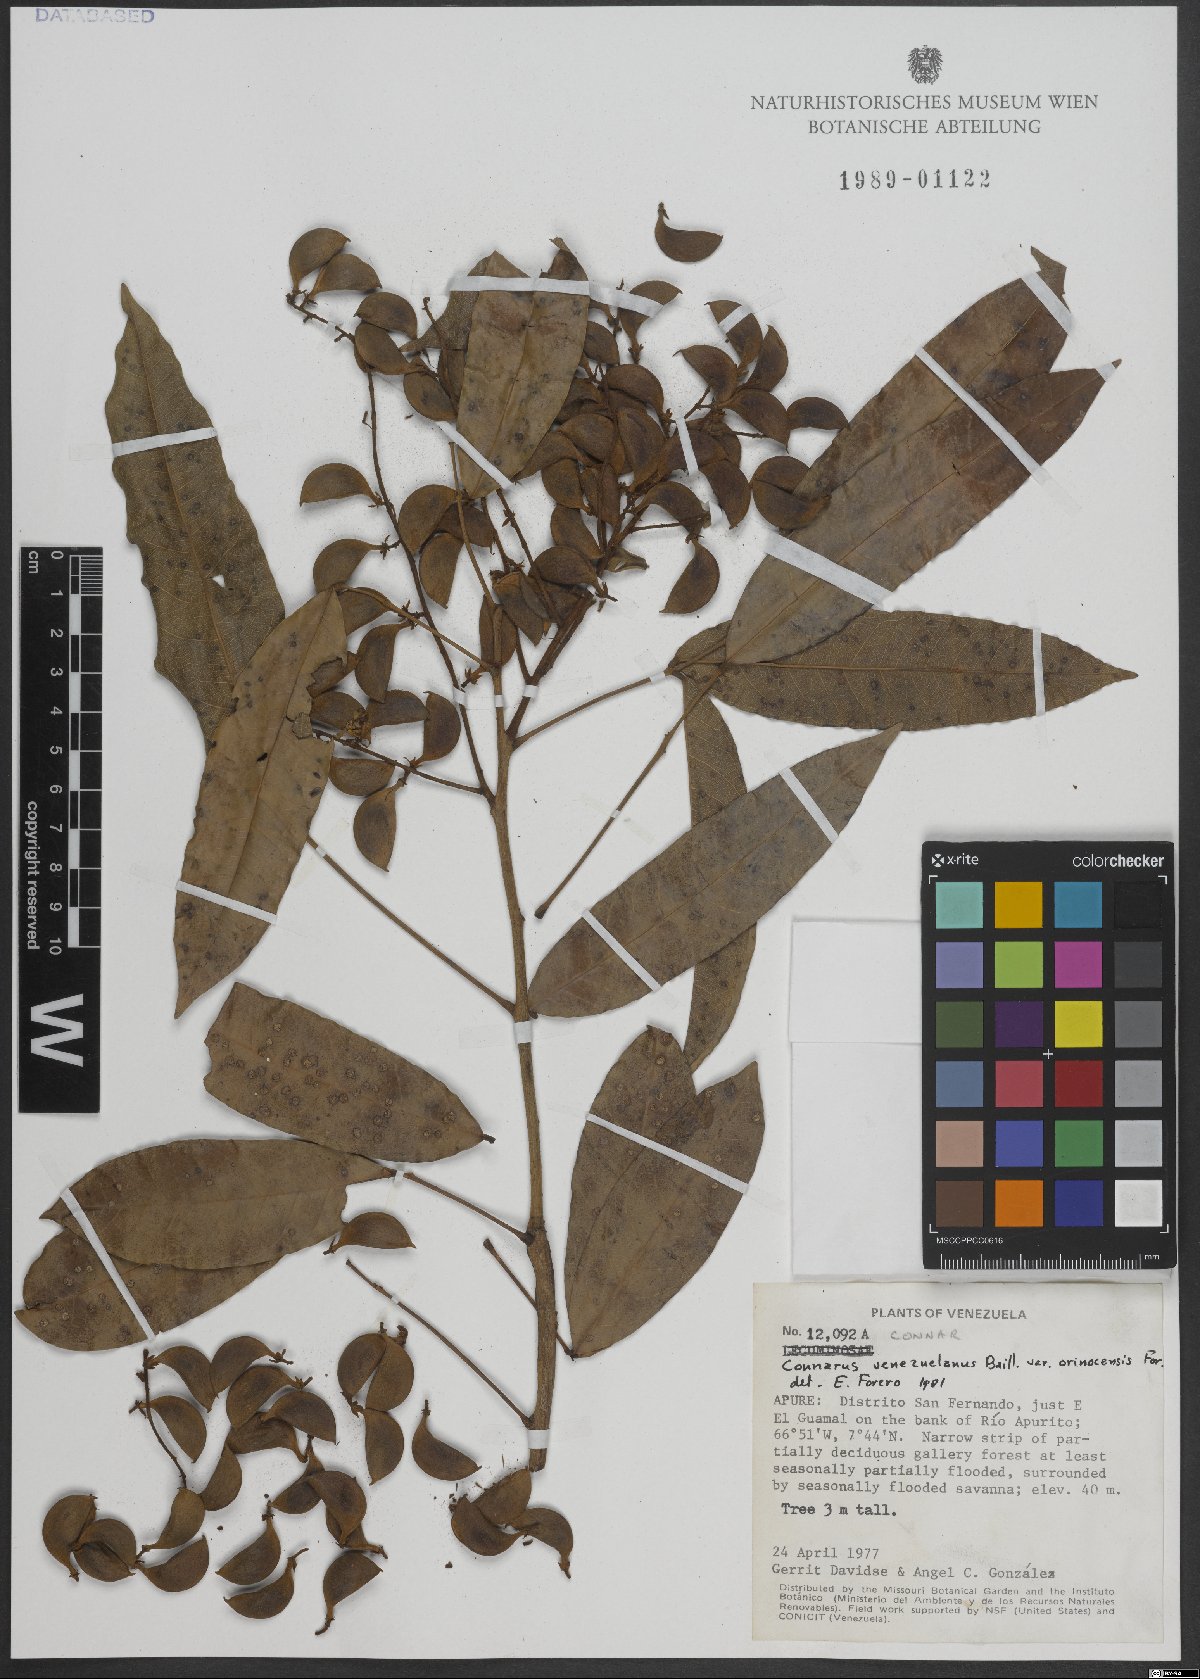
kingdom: Plantae
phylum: Tracheophyta
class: Magnoliopsida
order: Oxalidales
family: Connaraceae
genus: Connarus
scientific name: Connarus venezuelanus
